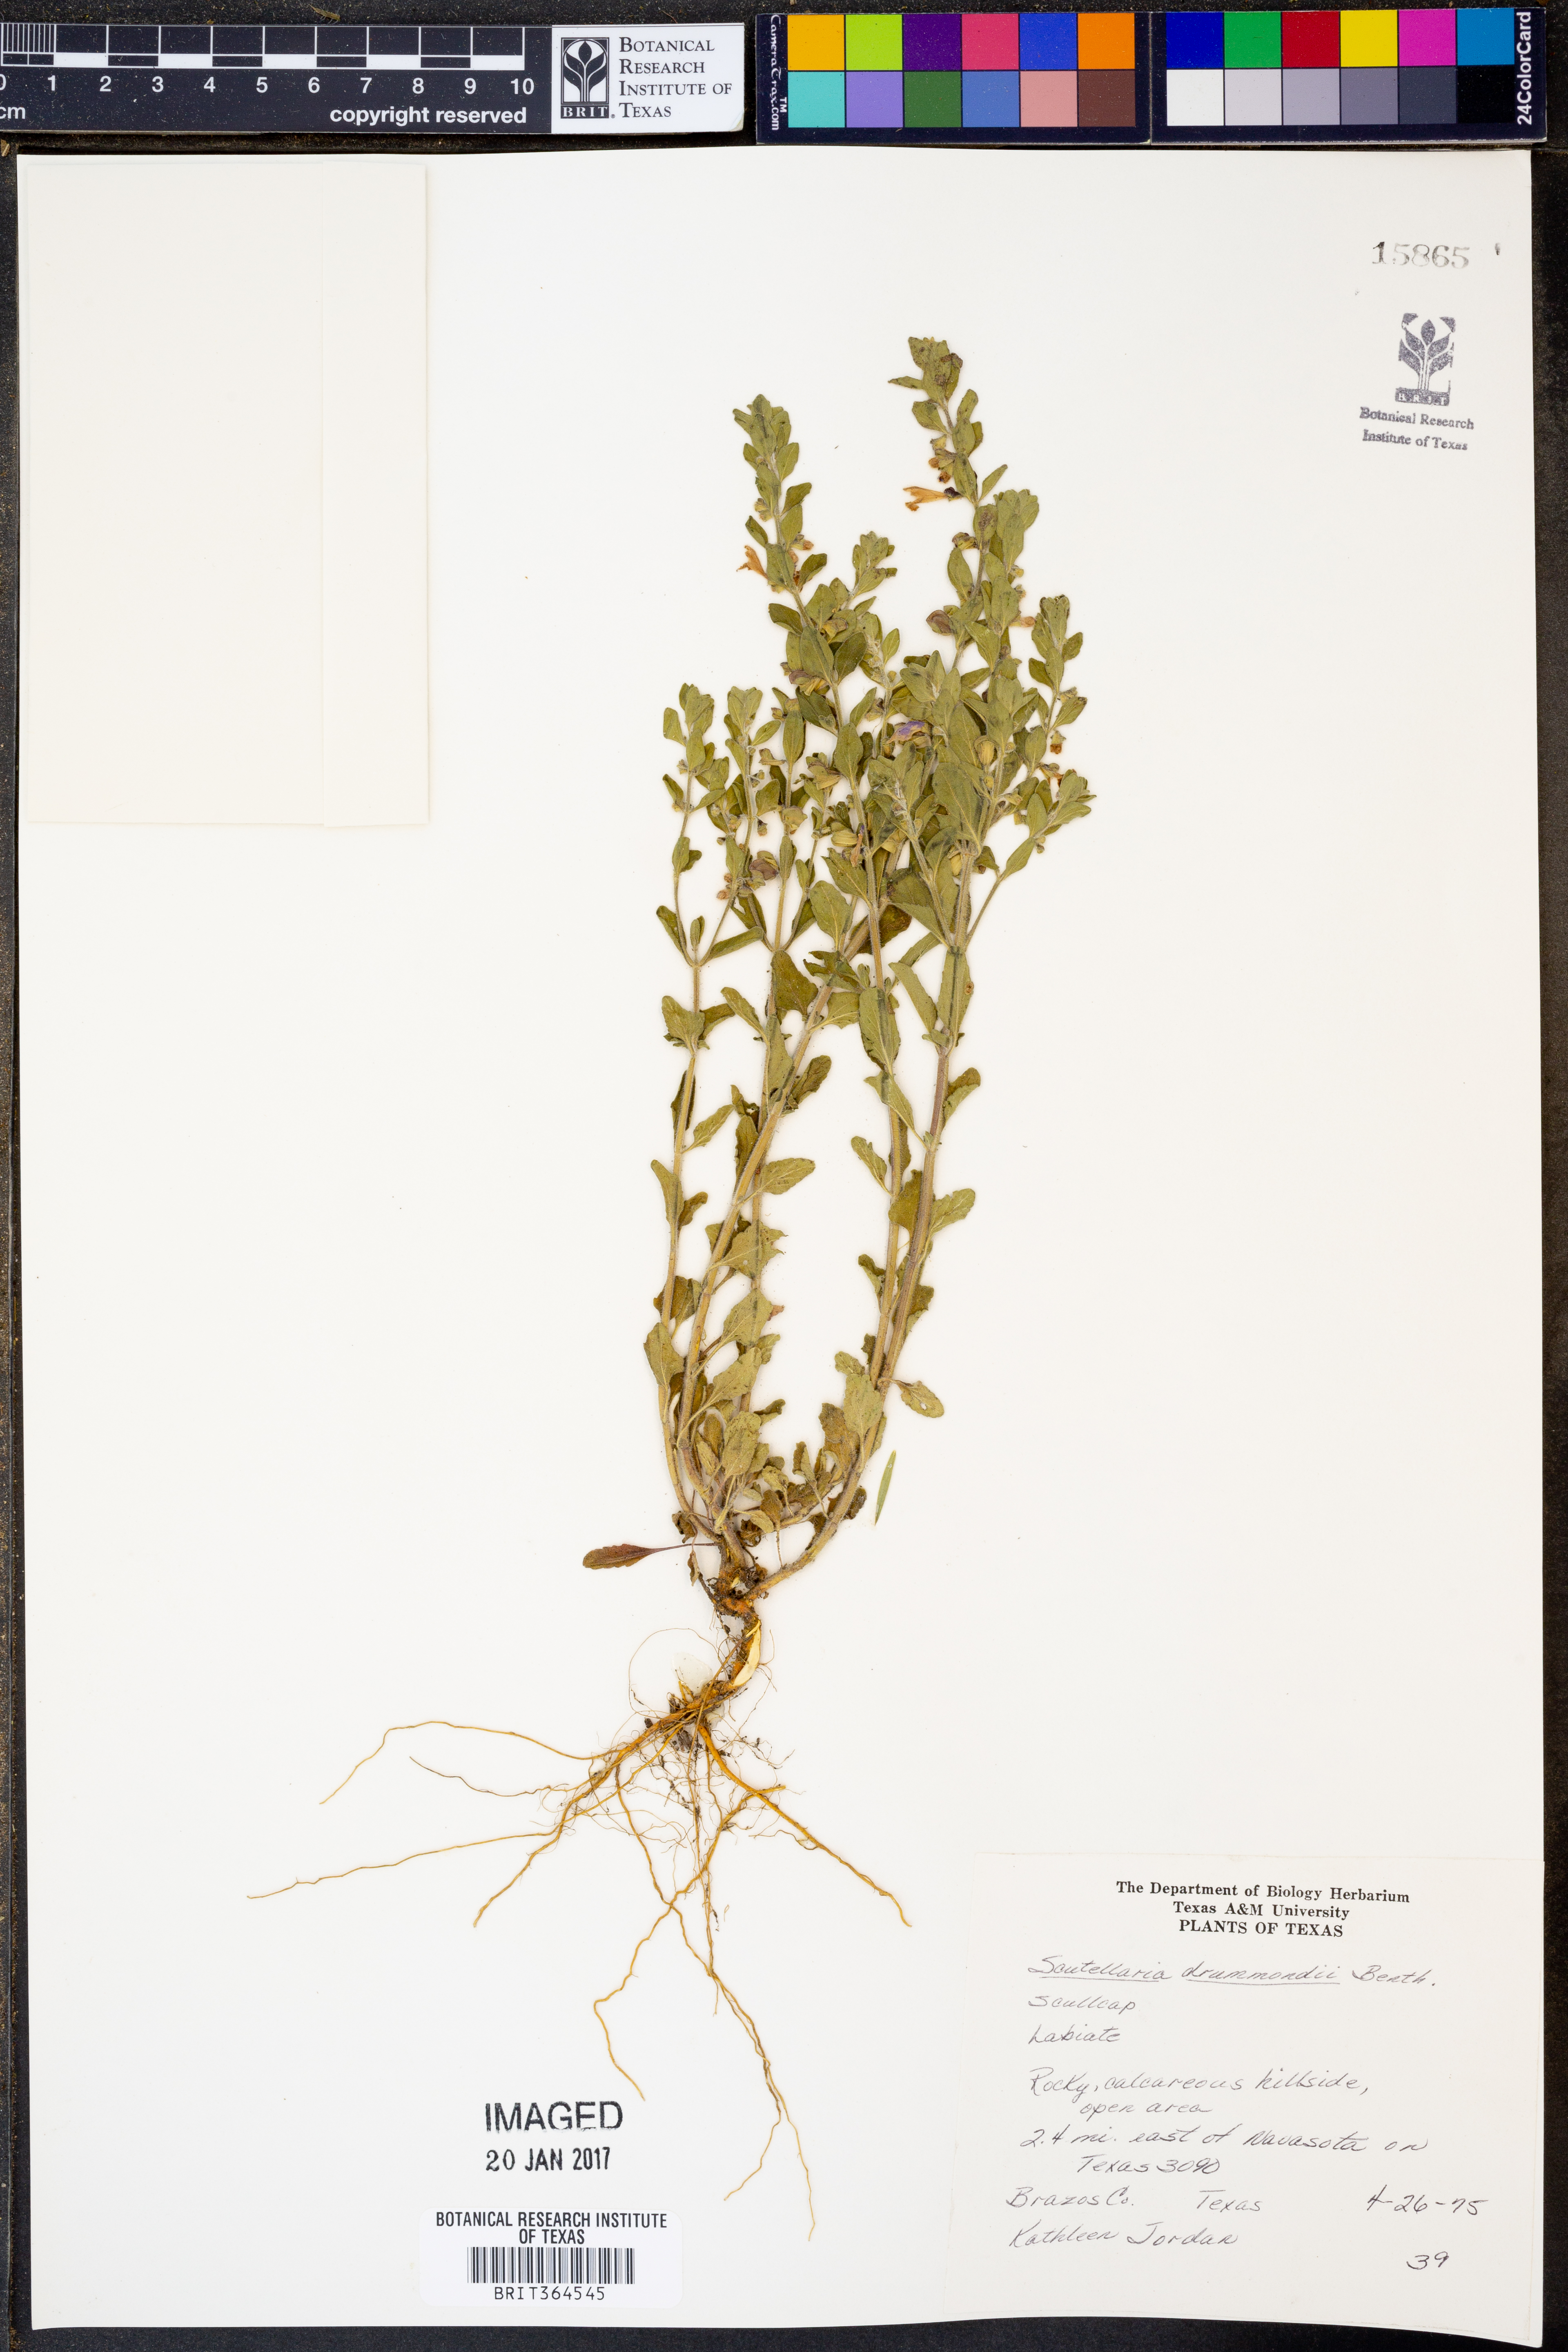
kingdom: Plantae
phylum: Tracheophyta
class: Magnoliopsida
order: Lamiales
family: Lamiaceae
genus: Scutellaria
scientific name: Scutellaria drummondii
